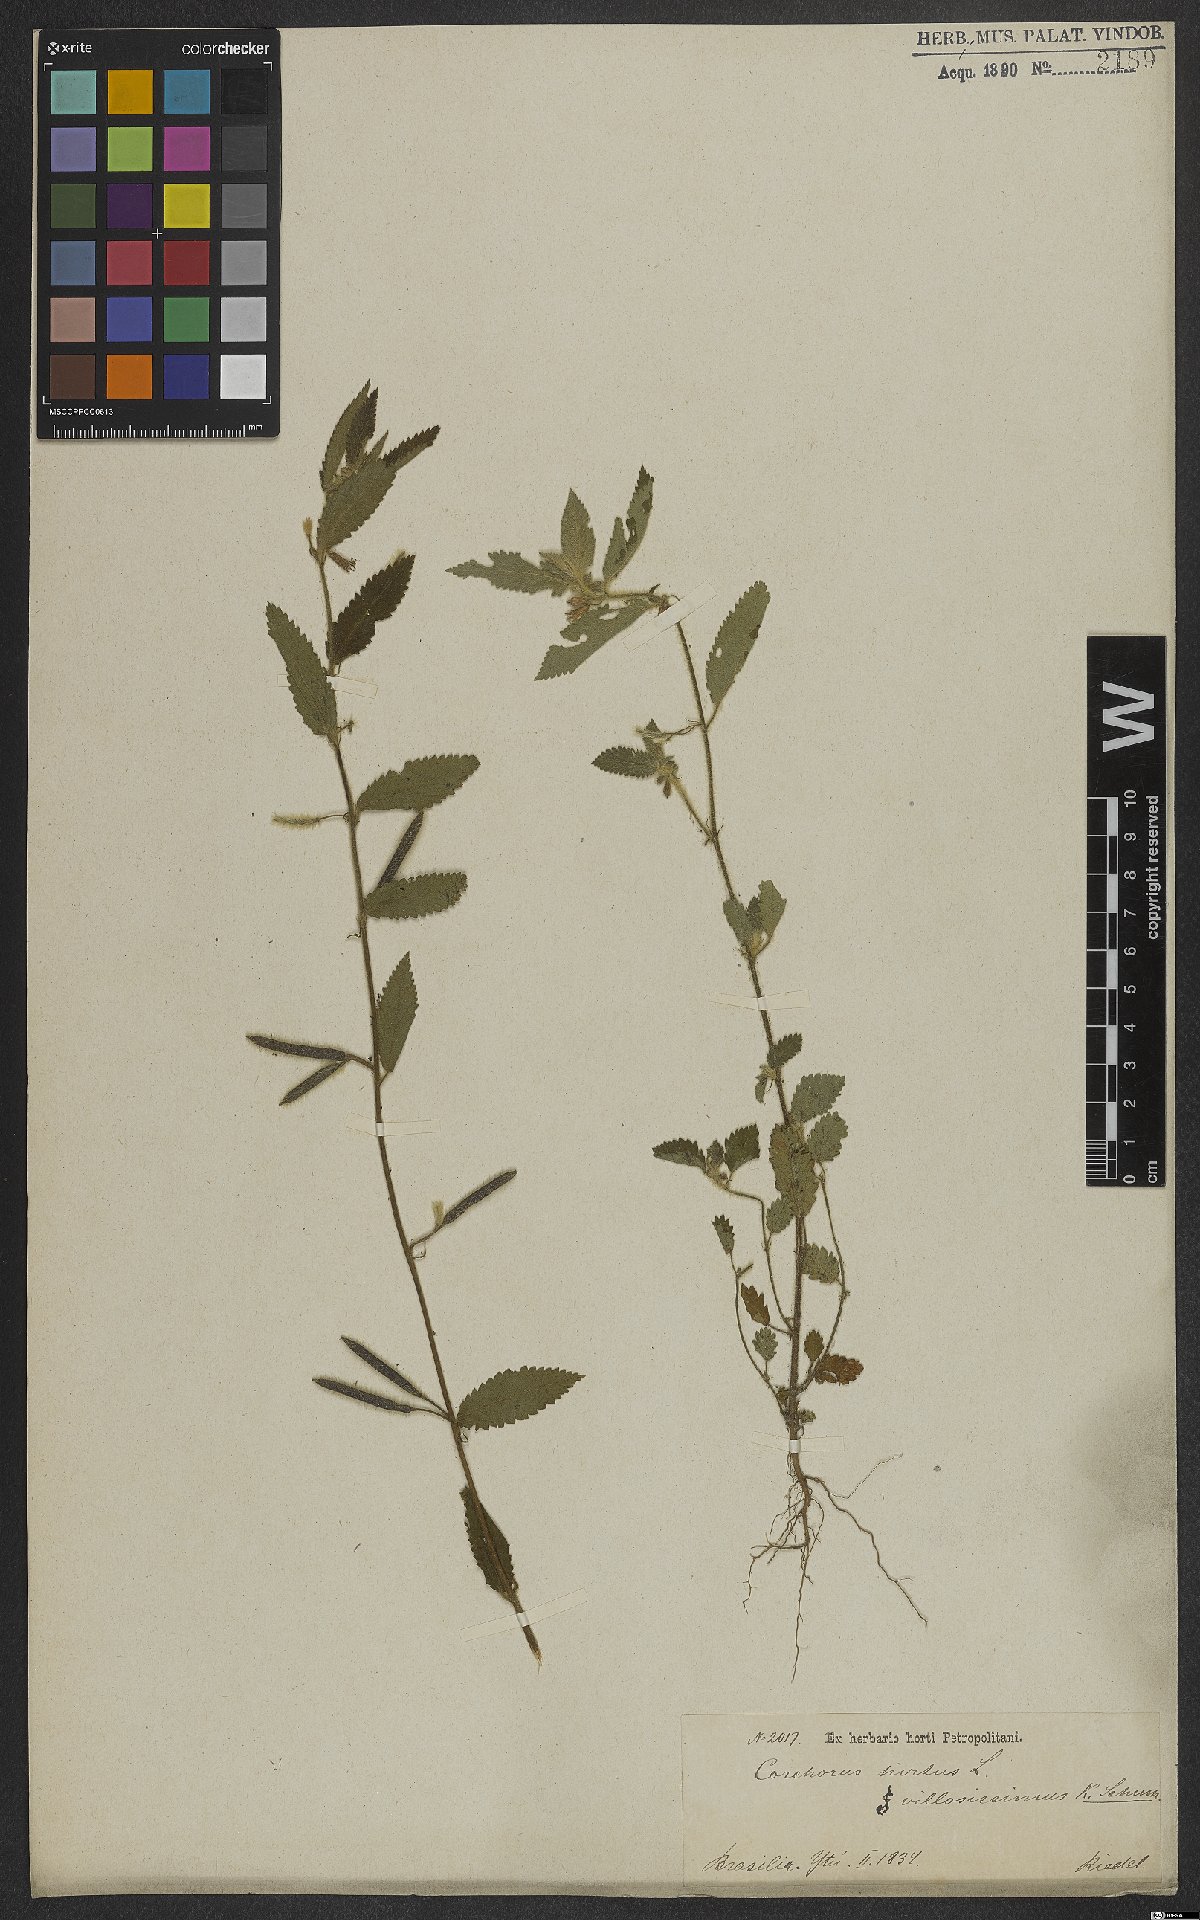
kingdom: Plantae
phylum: Tracheophyta
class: Magnoliopsida
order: Malvales
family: Malvaceae
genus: Corchorus
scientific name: Corchorus hirtus
